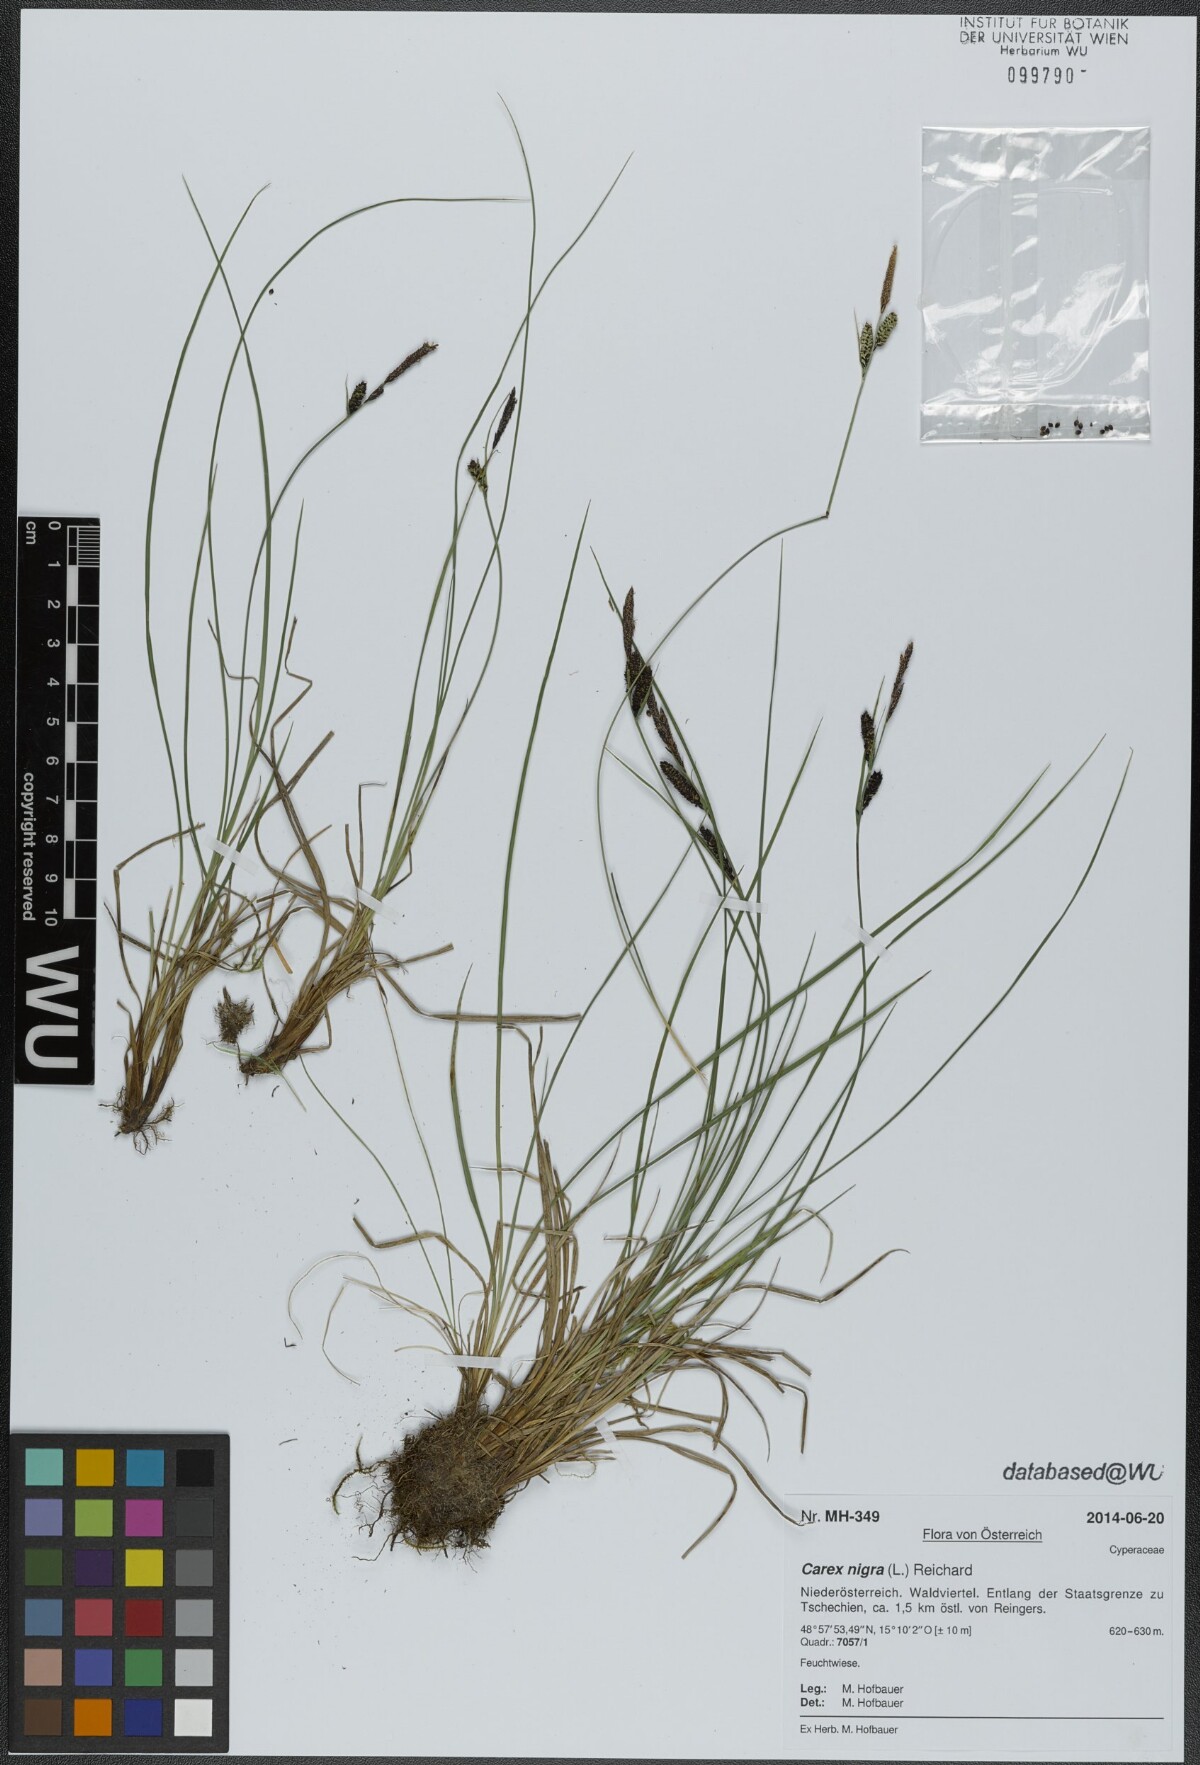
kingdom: Plantae
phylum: Tracheophyta
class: Liliopsida
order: Poales
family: Cyperaceae
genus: Carex
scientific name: Carex nigra
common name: Common sedge
